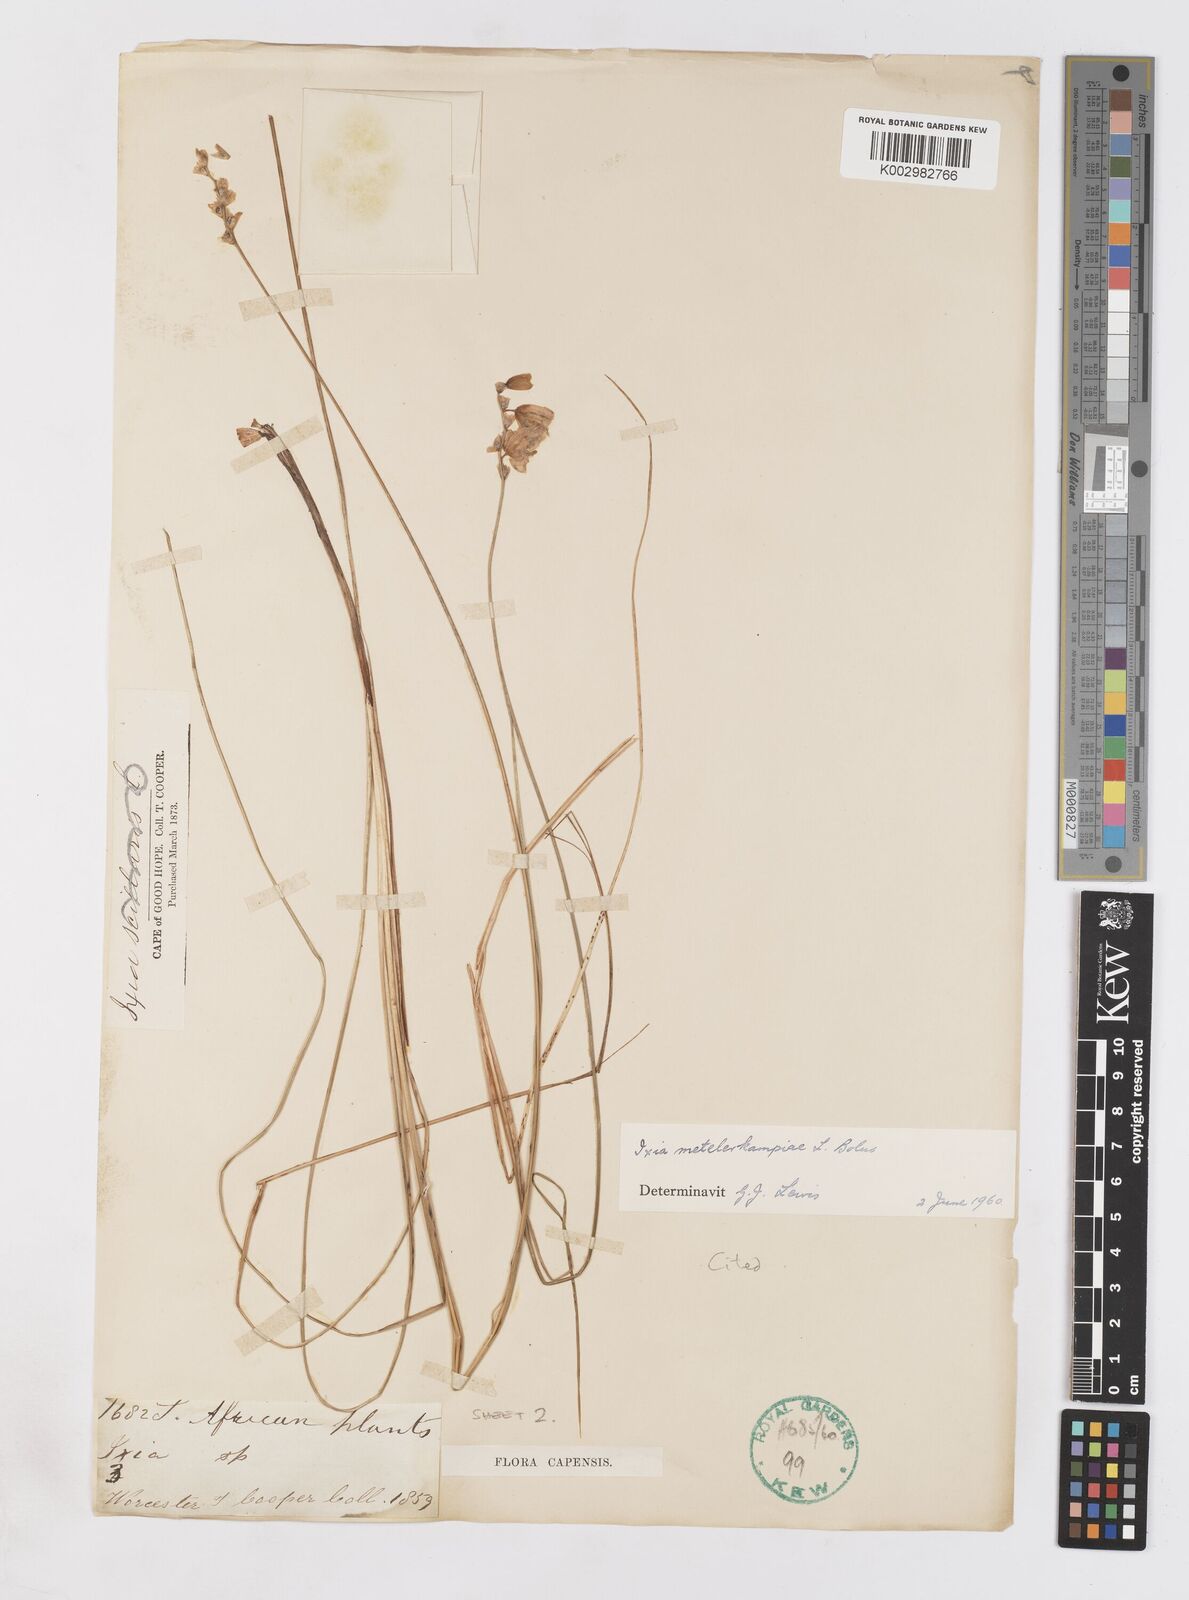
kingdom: Plantae
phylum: Tracheophyta
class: Liliopsida
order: Asparagales
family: Iridaceae
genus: Ixia
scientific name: Ixia metelerkampiae
